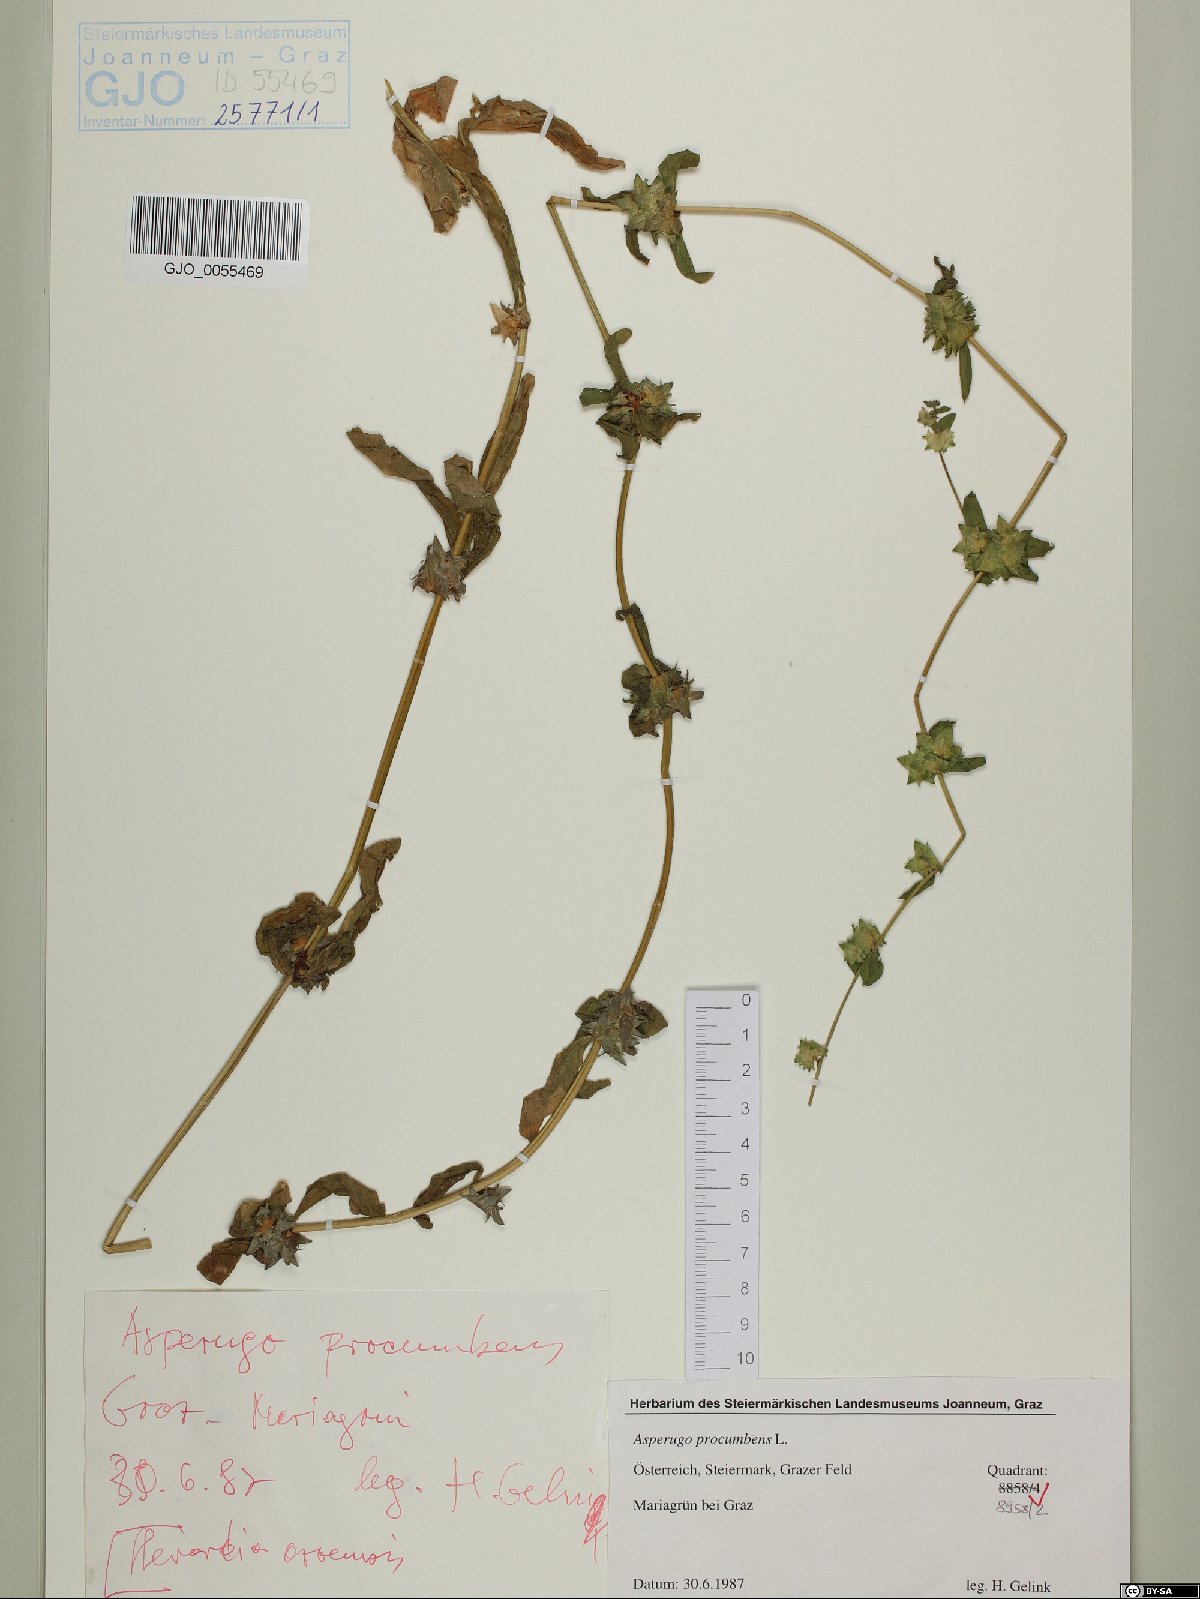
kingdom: Plantae
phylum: Tracheophyta
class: Magnoliopsida
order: Boraginales
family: Boraginaceae
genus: Asperugo
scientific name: Asperugo procumbens
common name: Madwort
